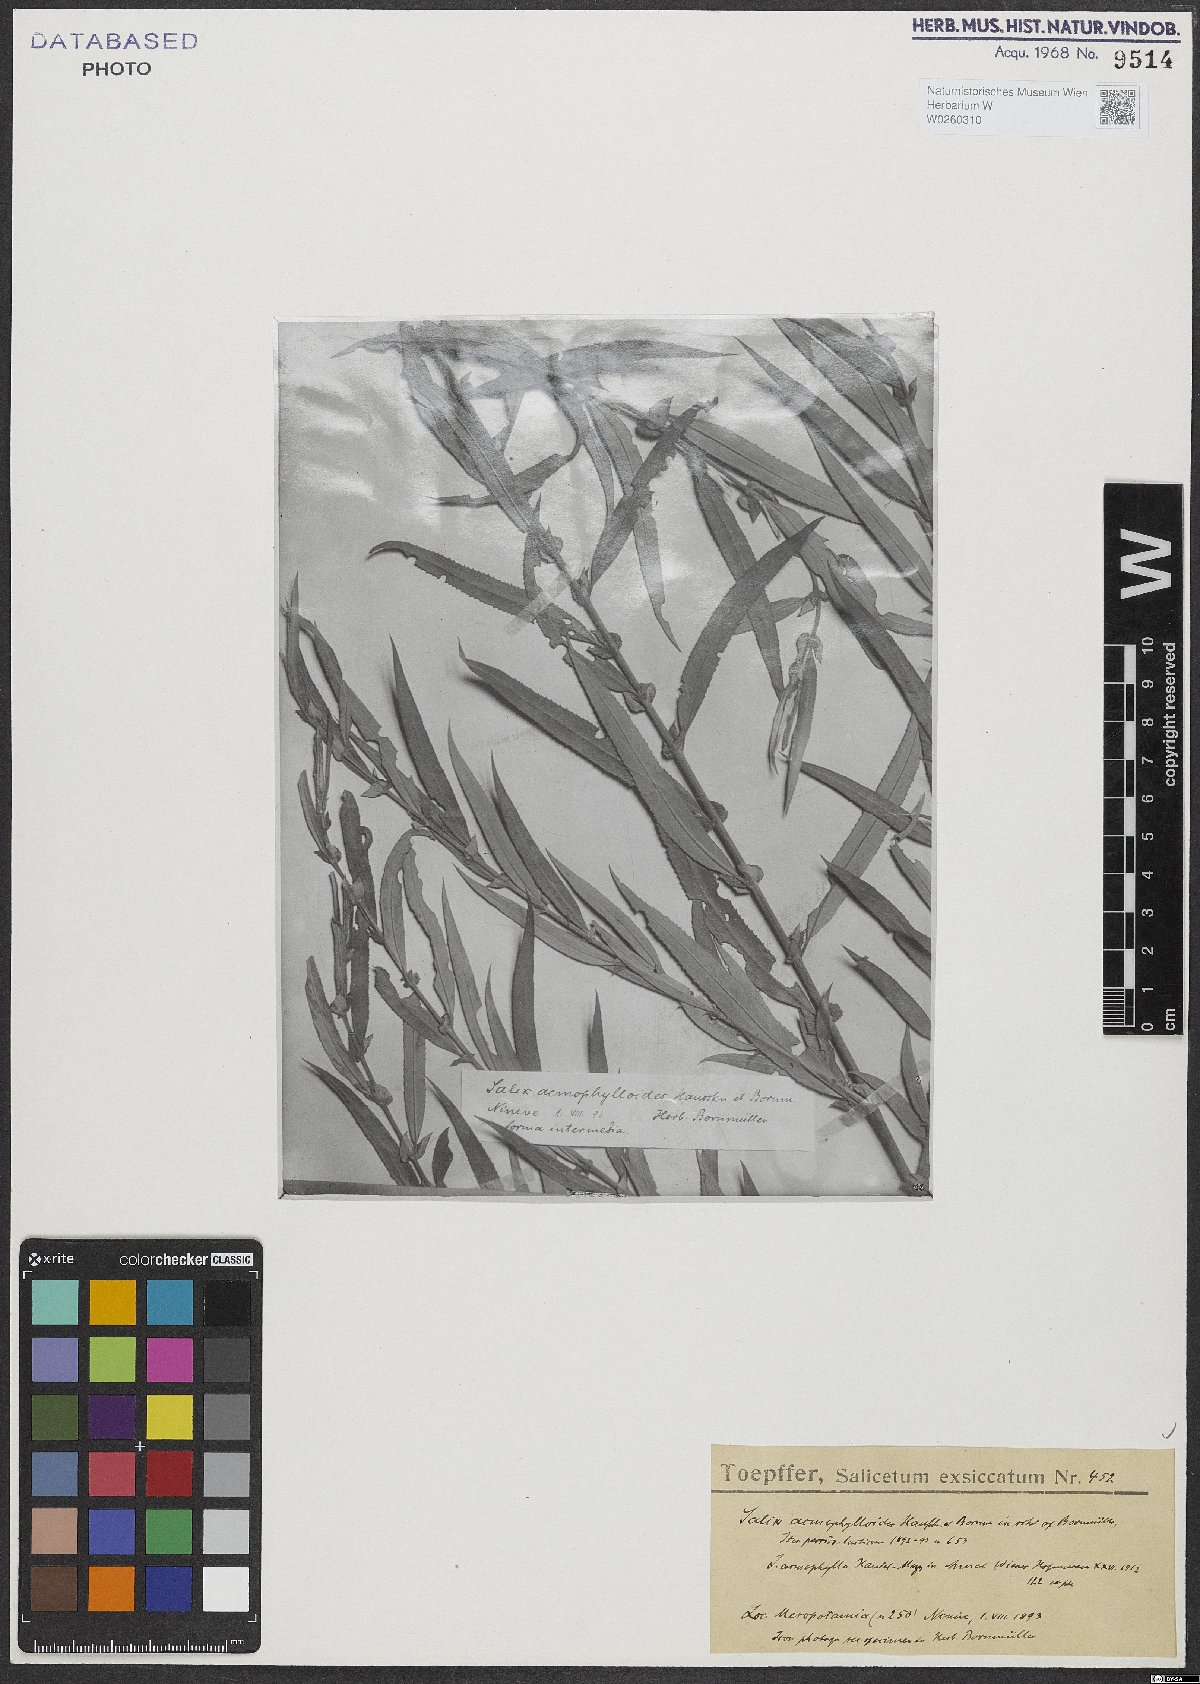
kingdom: Plantae
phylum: Tracheophyta
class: Magnoliopsida
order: Malpighiales
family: Salicaceae
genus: Salix
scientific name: Salix
